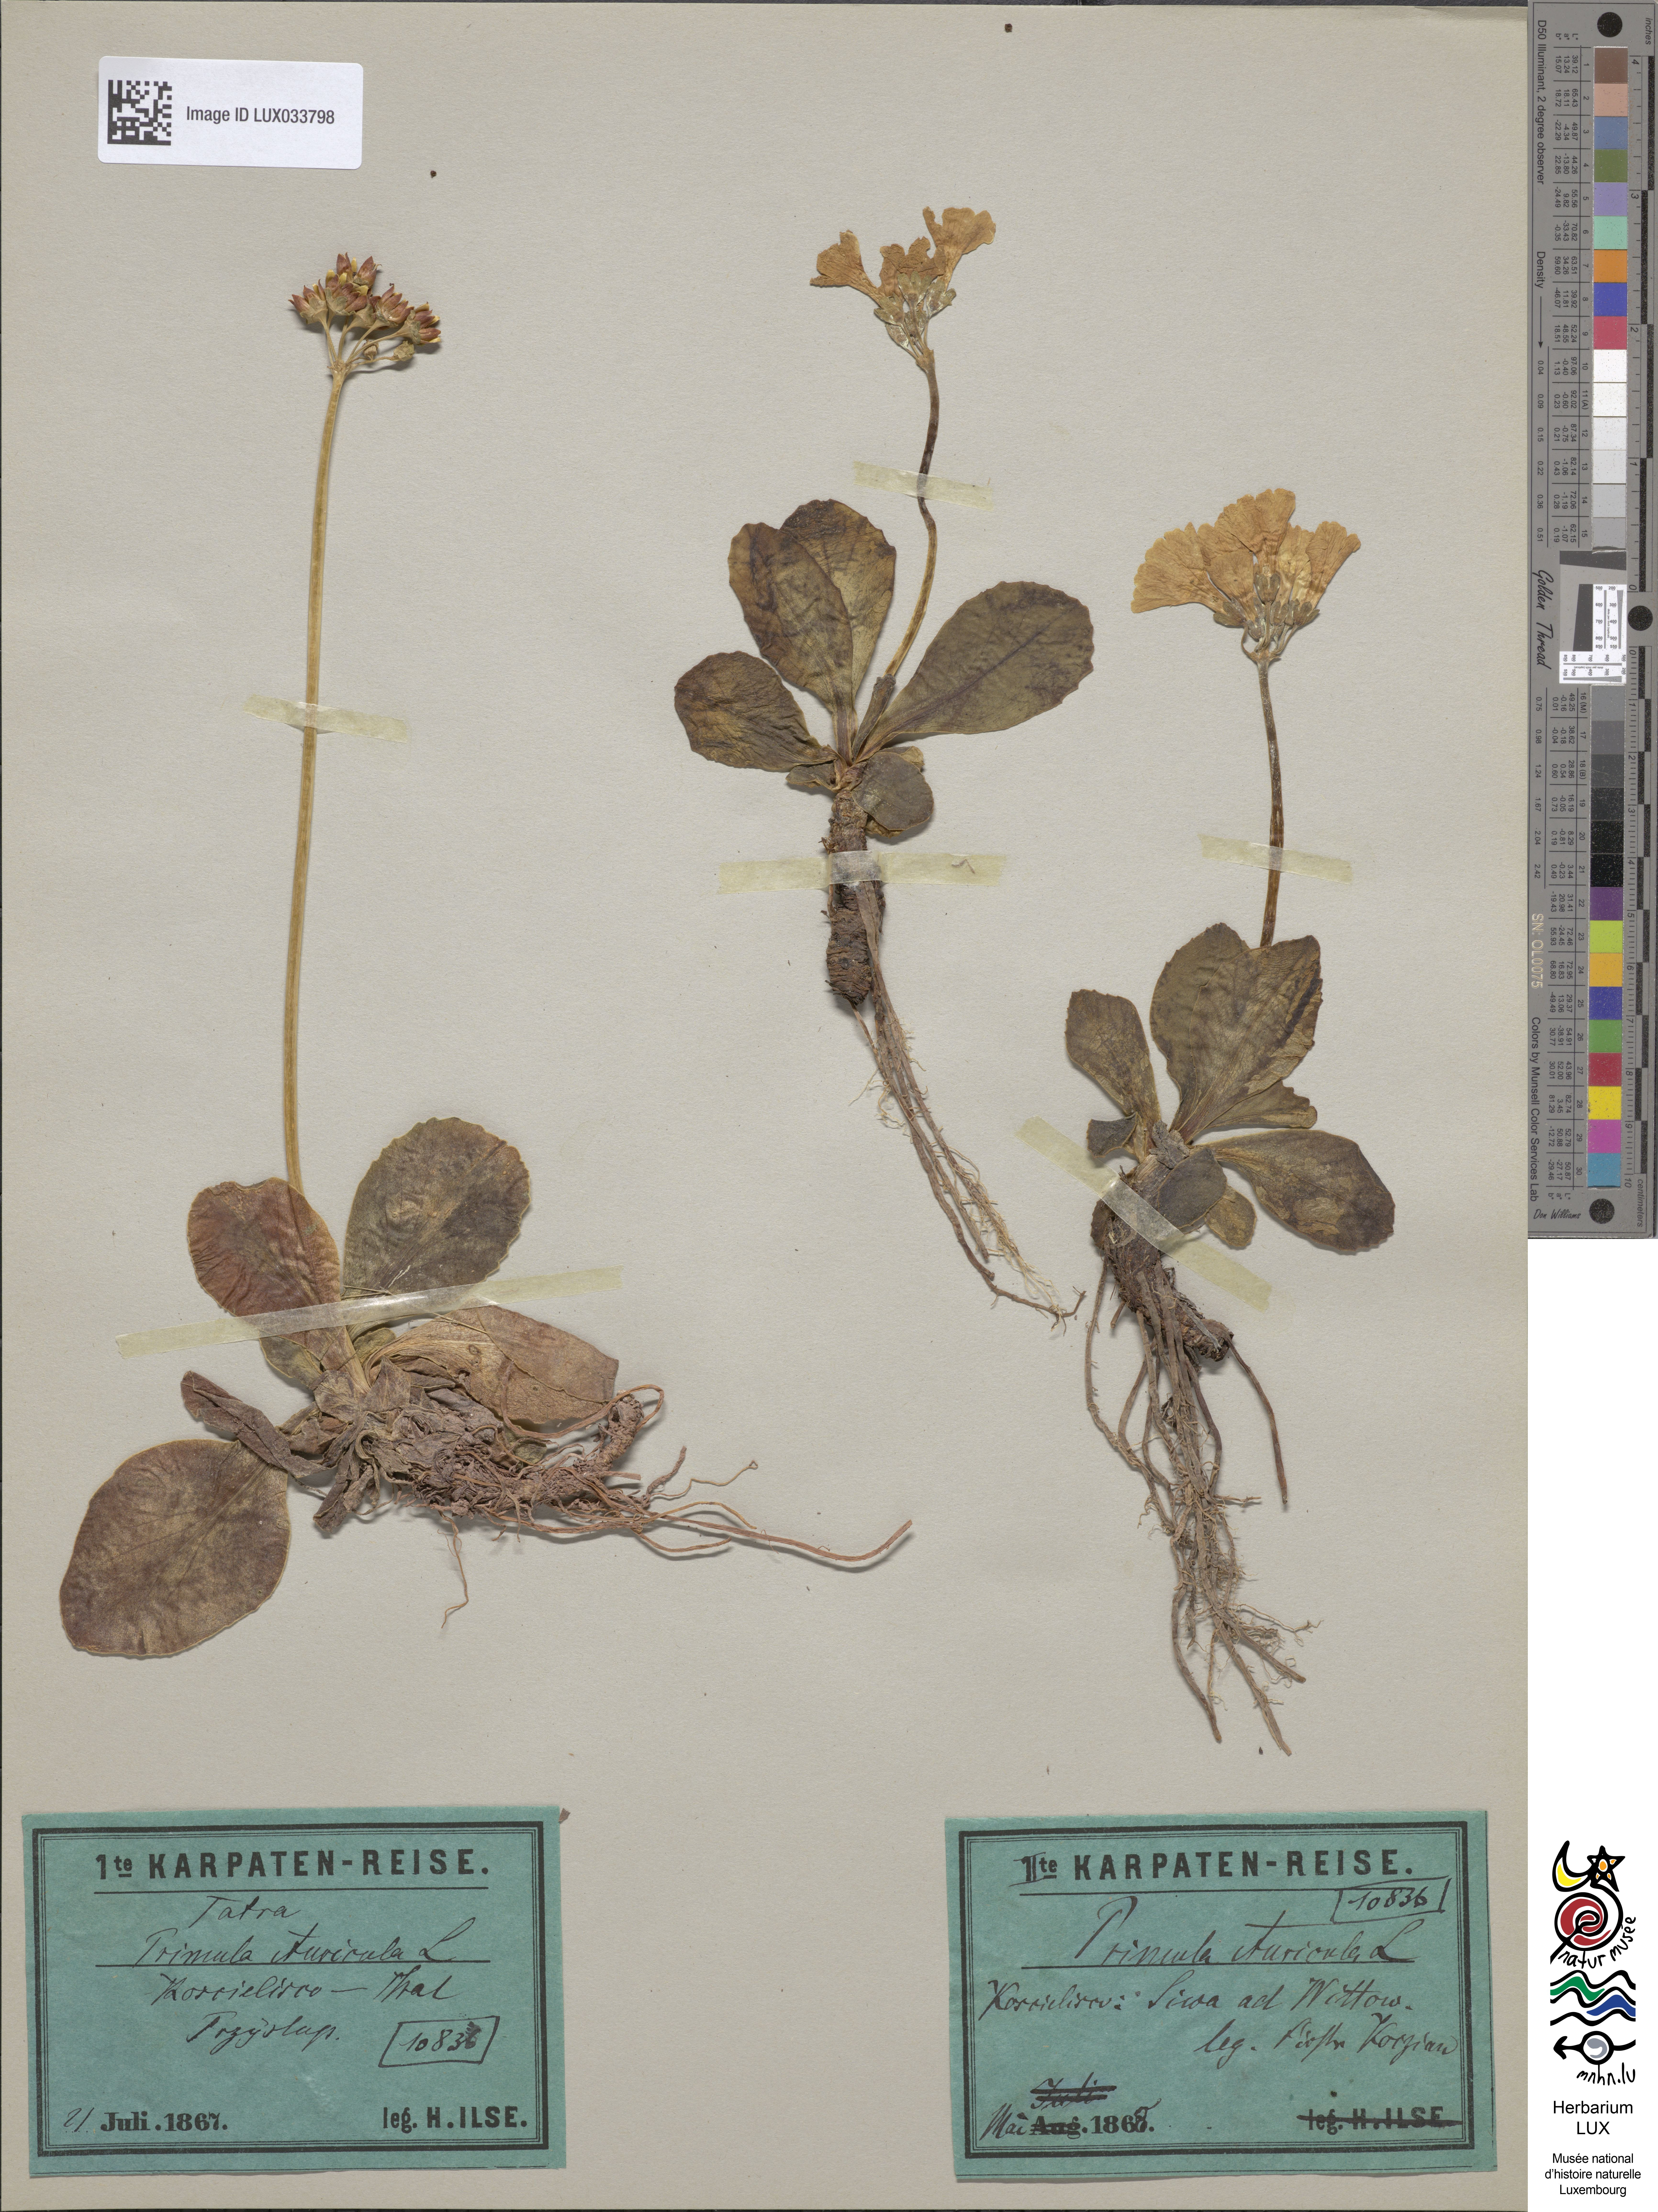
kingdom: Plantae
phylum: Tracheophyta
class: Magnoliopsida
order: Ericales
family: Primulaceae
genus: Primula
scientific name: Primula auricula
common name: Auricula
